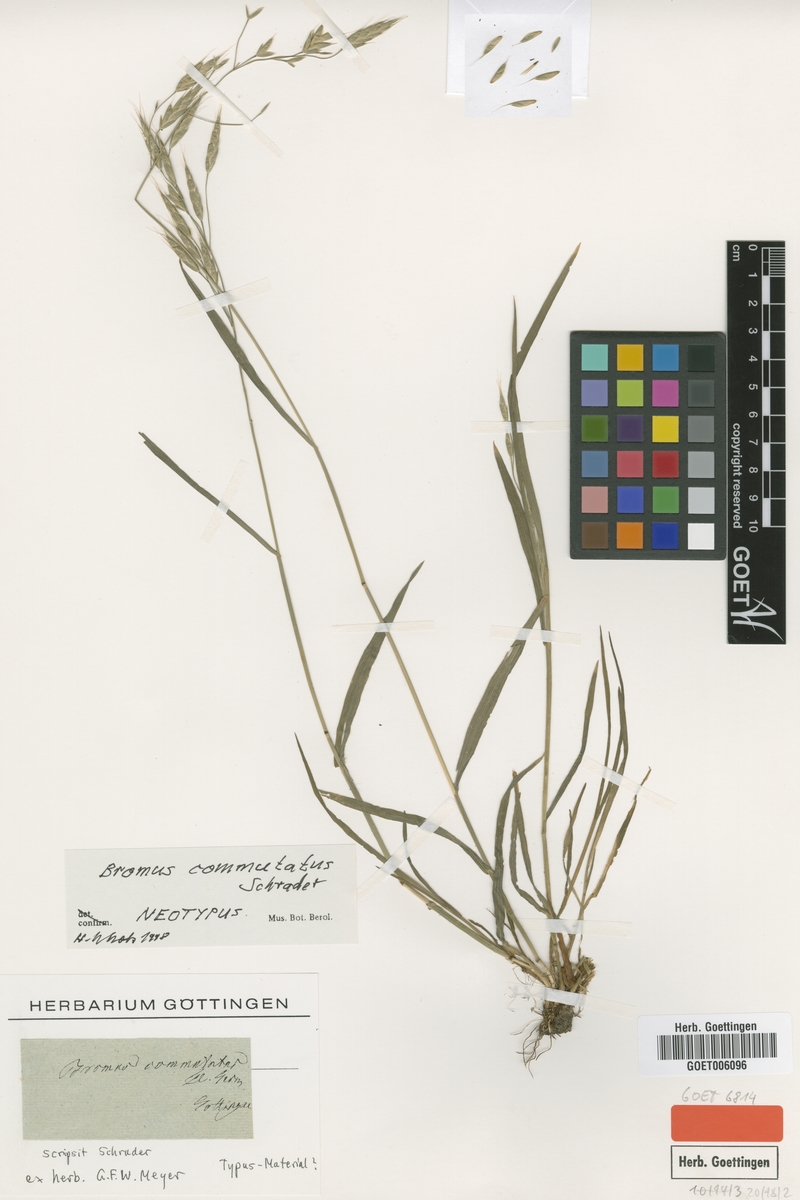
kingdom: Plantae
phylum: Tracheophyta
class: Liliopsida
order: Poales
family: Poaceae
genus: Bromus
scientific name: Bromus commutatus
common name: Meadow brome
